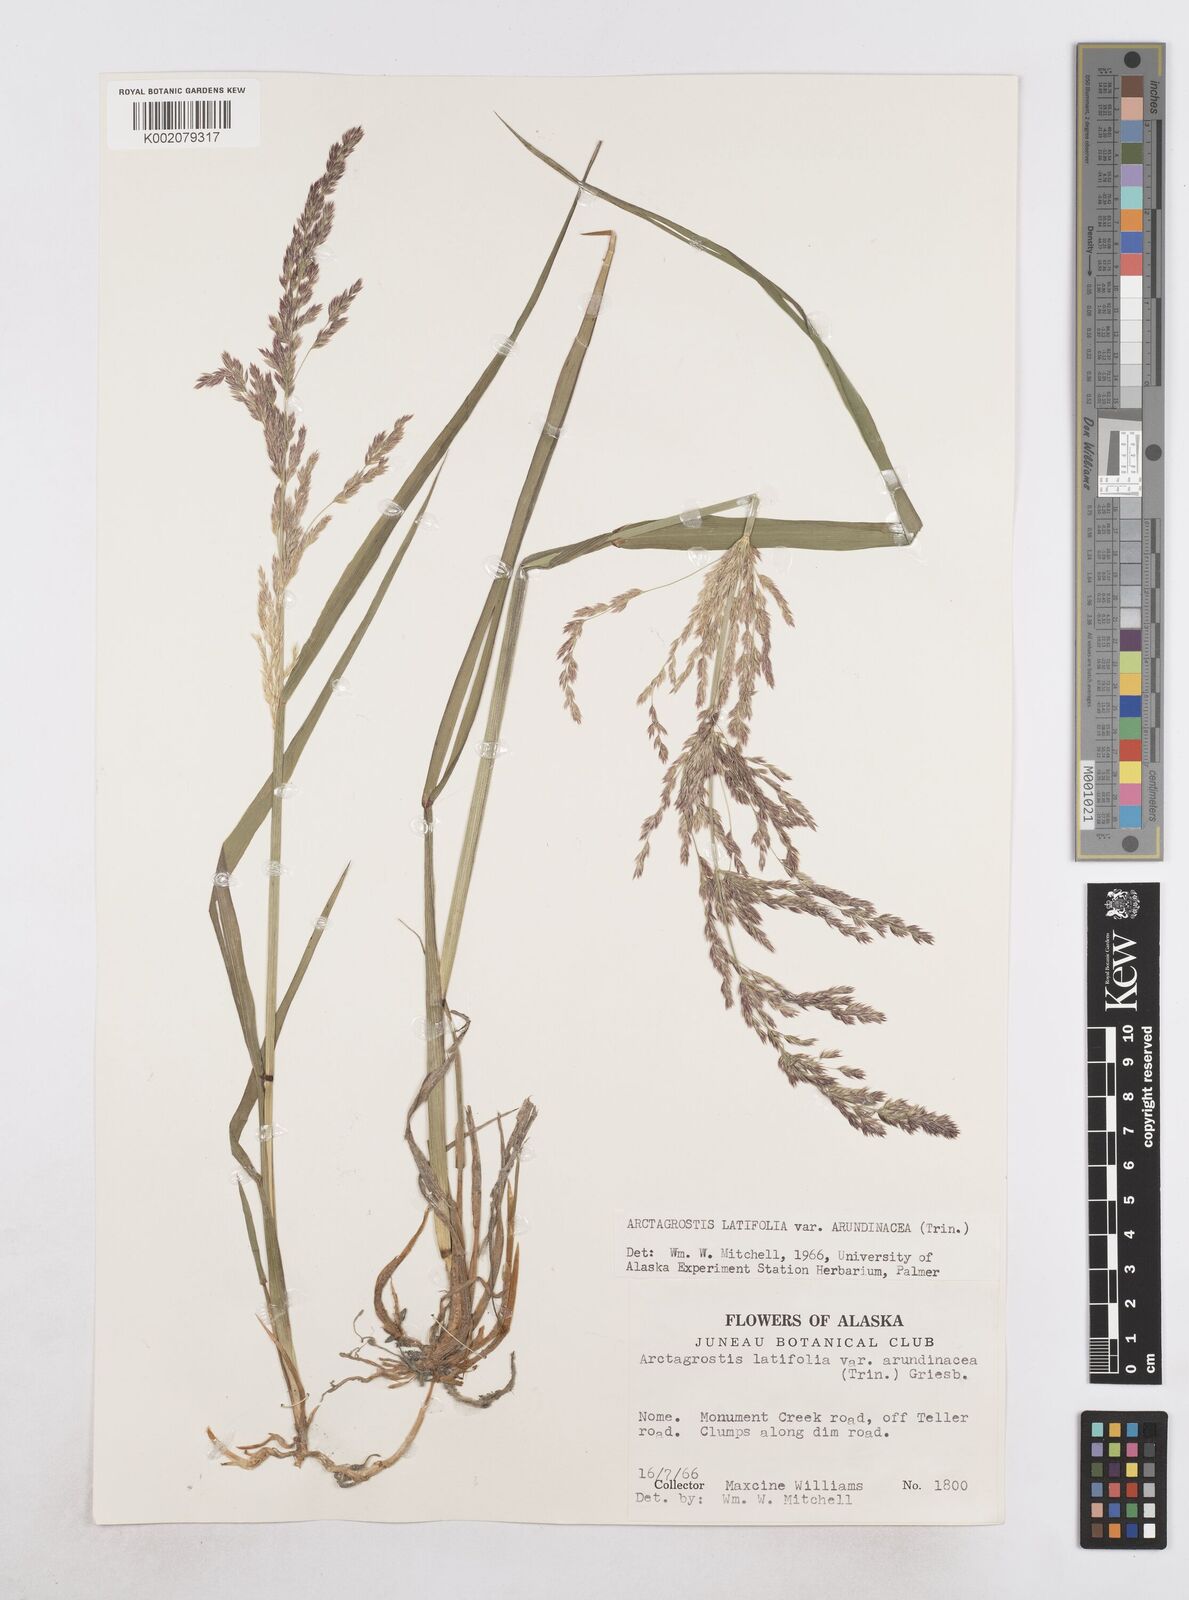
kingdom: Plantae
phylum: Tracheophyta
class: Liliopsida
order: Poales
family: Poaceae
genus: Arctagrostis
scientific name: Arctagrostis arundinacea
